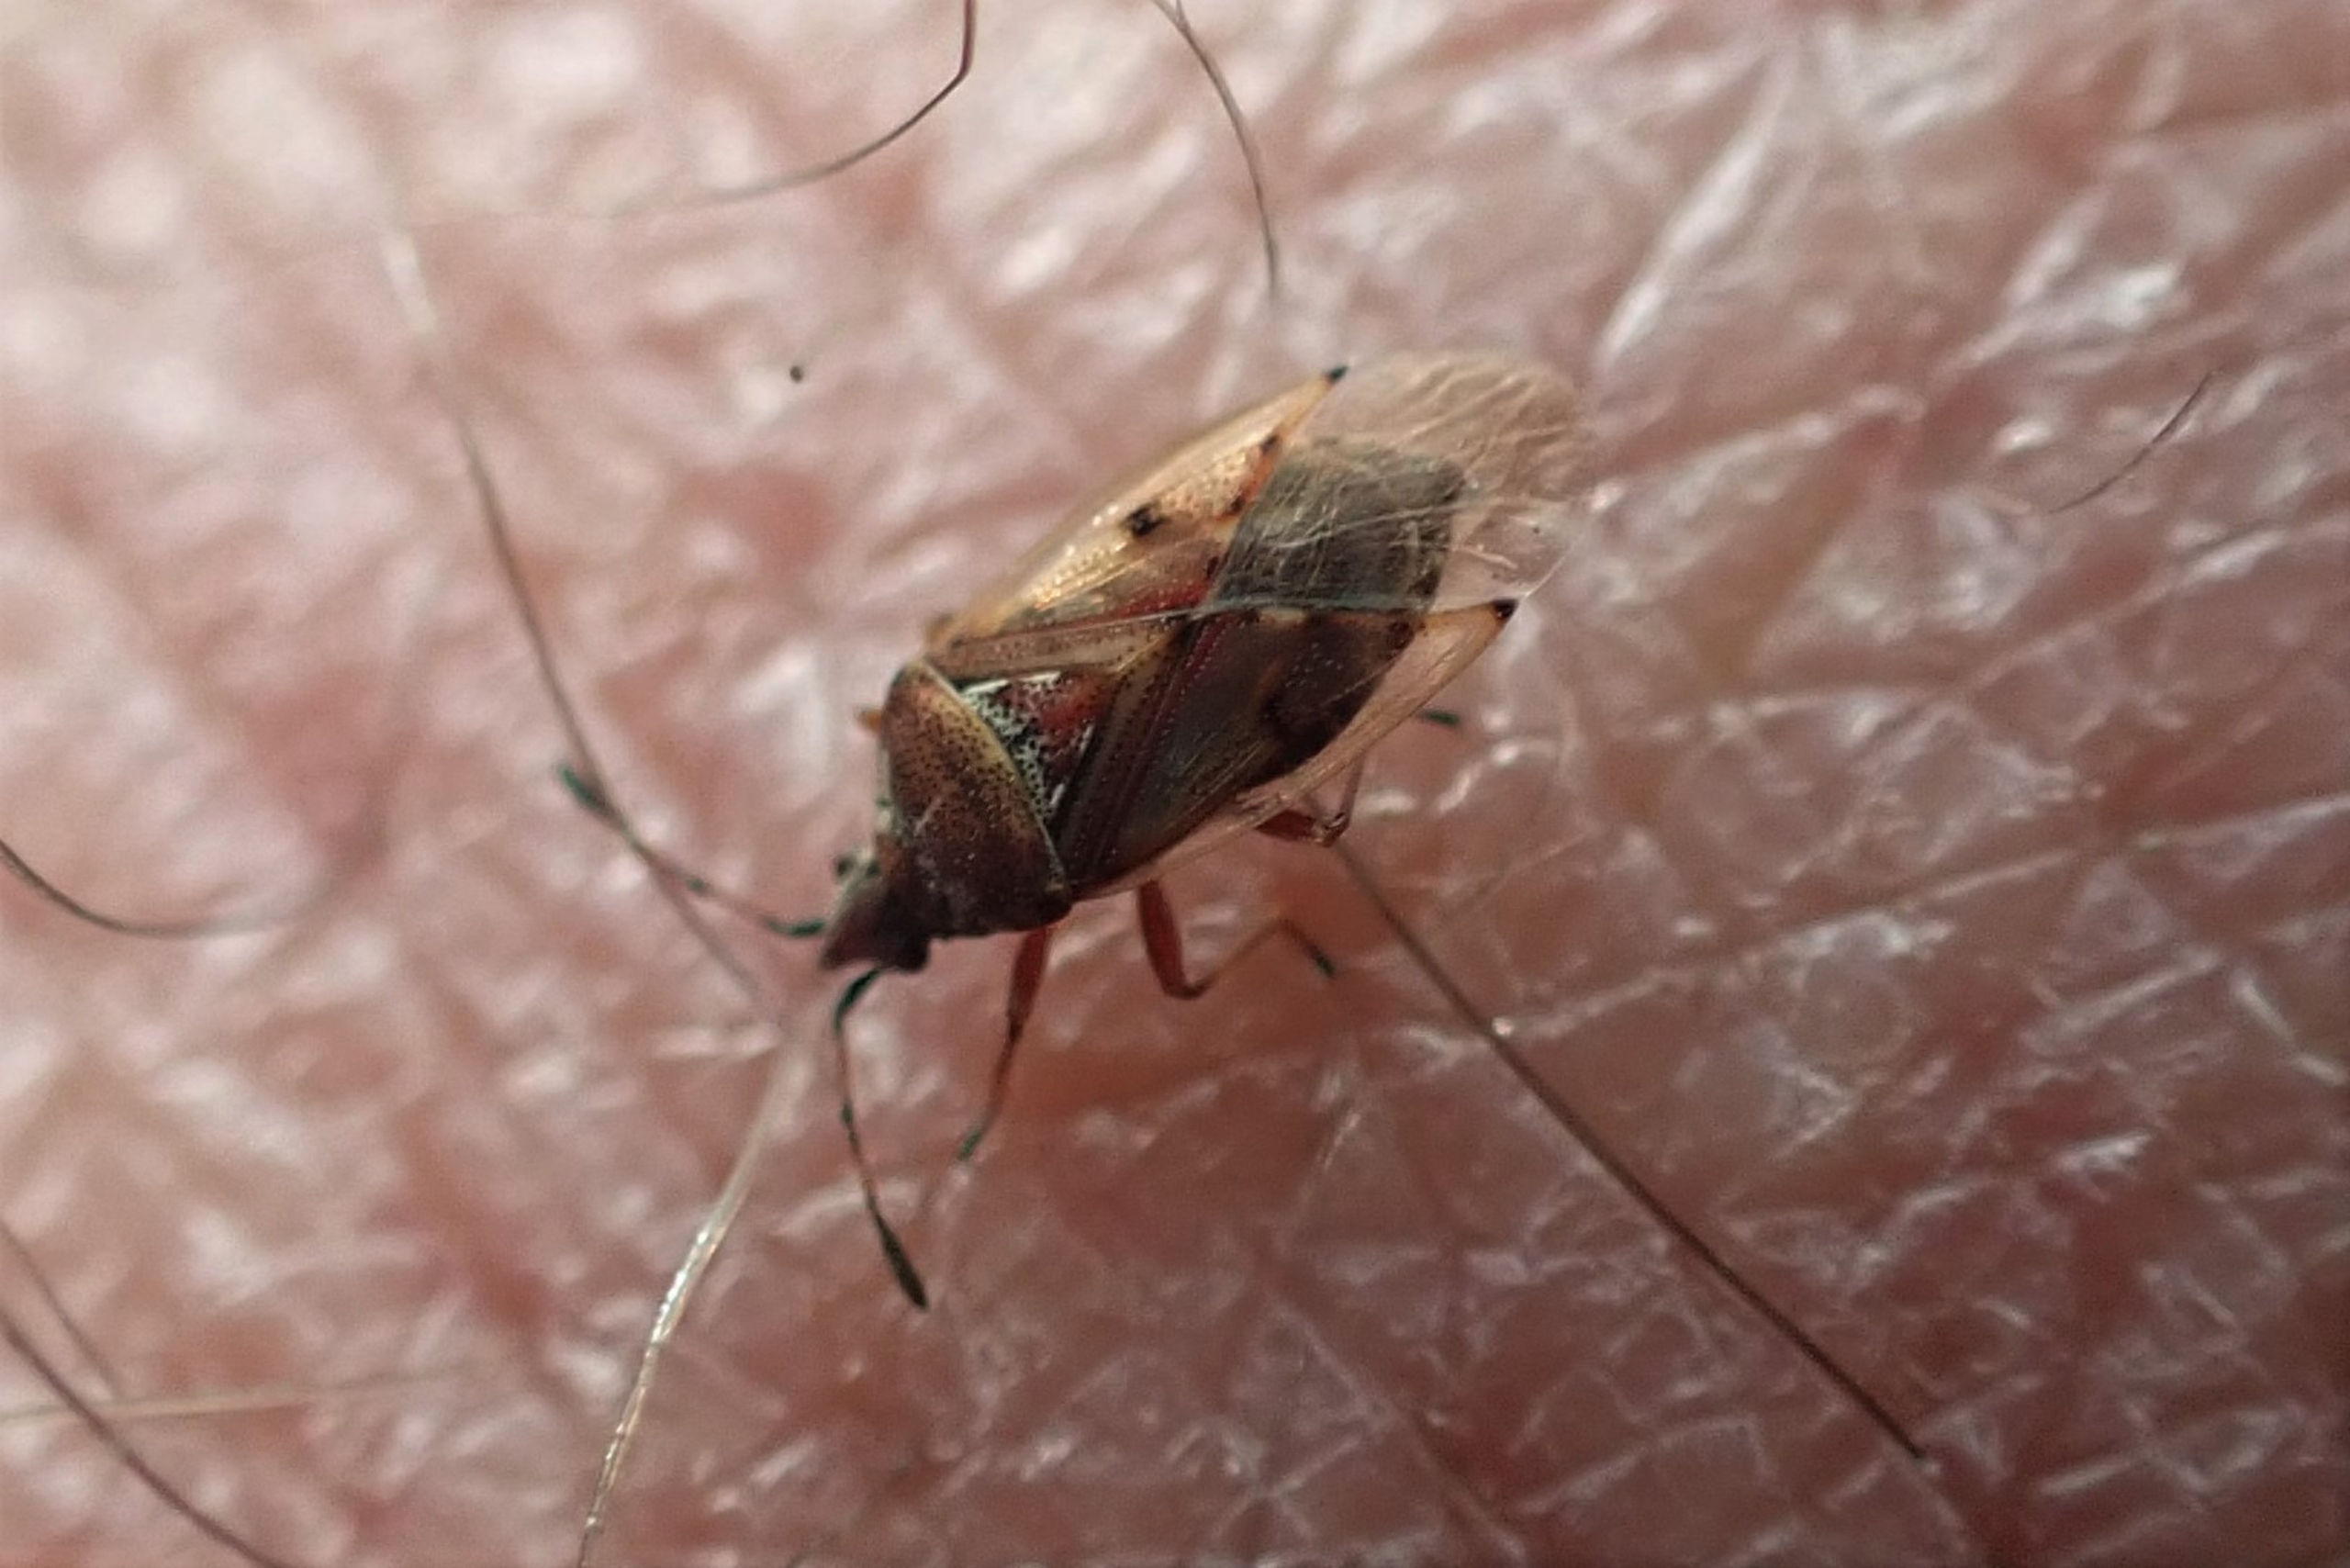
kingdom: Animalia
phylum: Arthropoda
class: Insecta
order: Hemiptera
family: Lygaeidae
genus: Kleidocerys
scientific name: Kleidocerys resedae
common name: Birkefrøtæge
